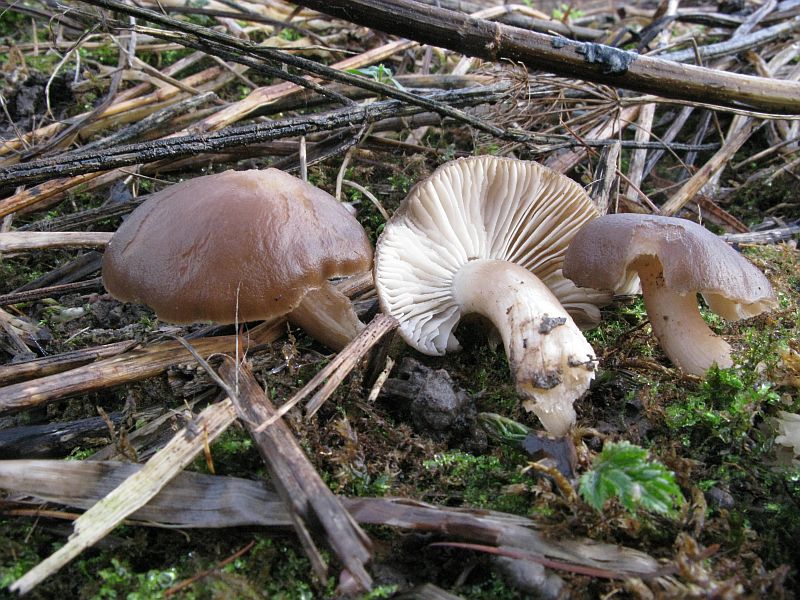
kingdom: Fungi
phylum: Basidiomycota
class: Agaricomycetes
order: Agaricales
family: Lyophyllaceae
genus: Lyophyllum
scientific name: Lyophyllum decastes
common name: Clustered domecap
